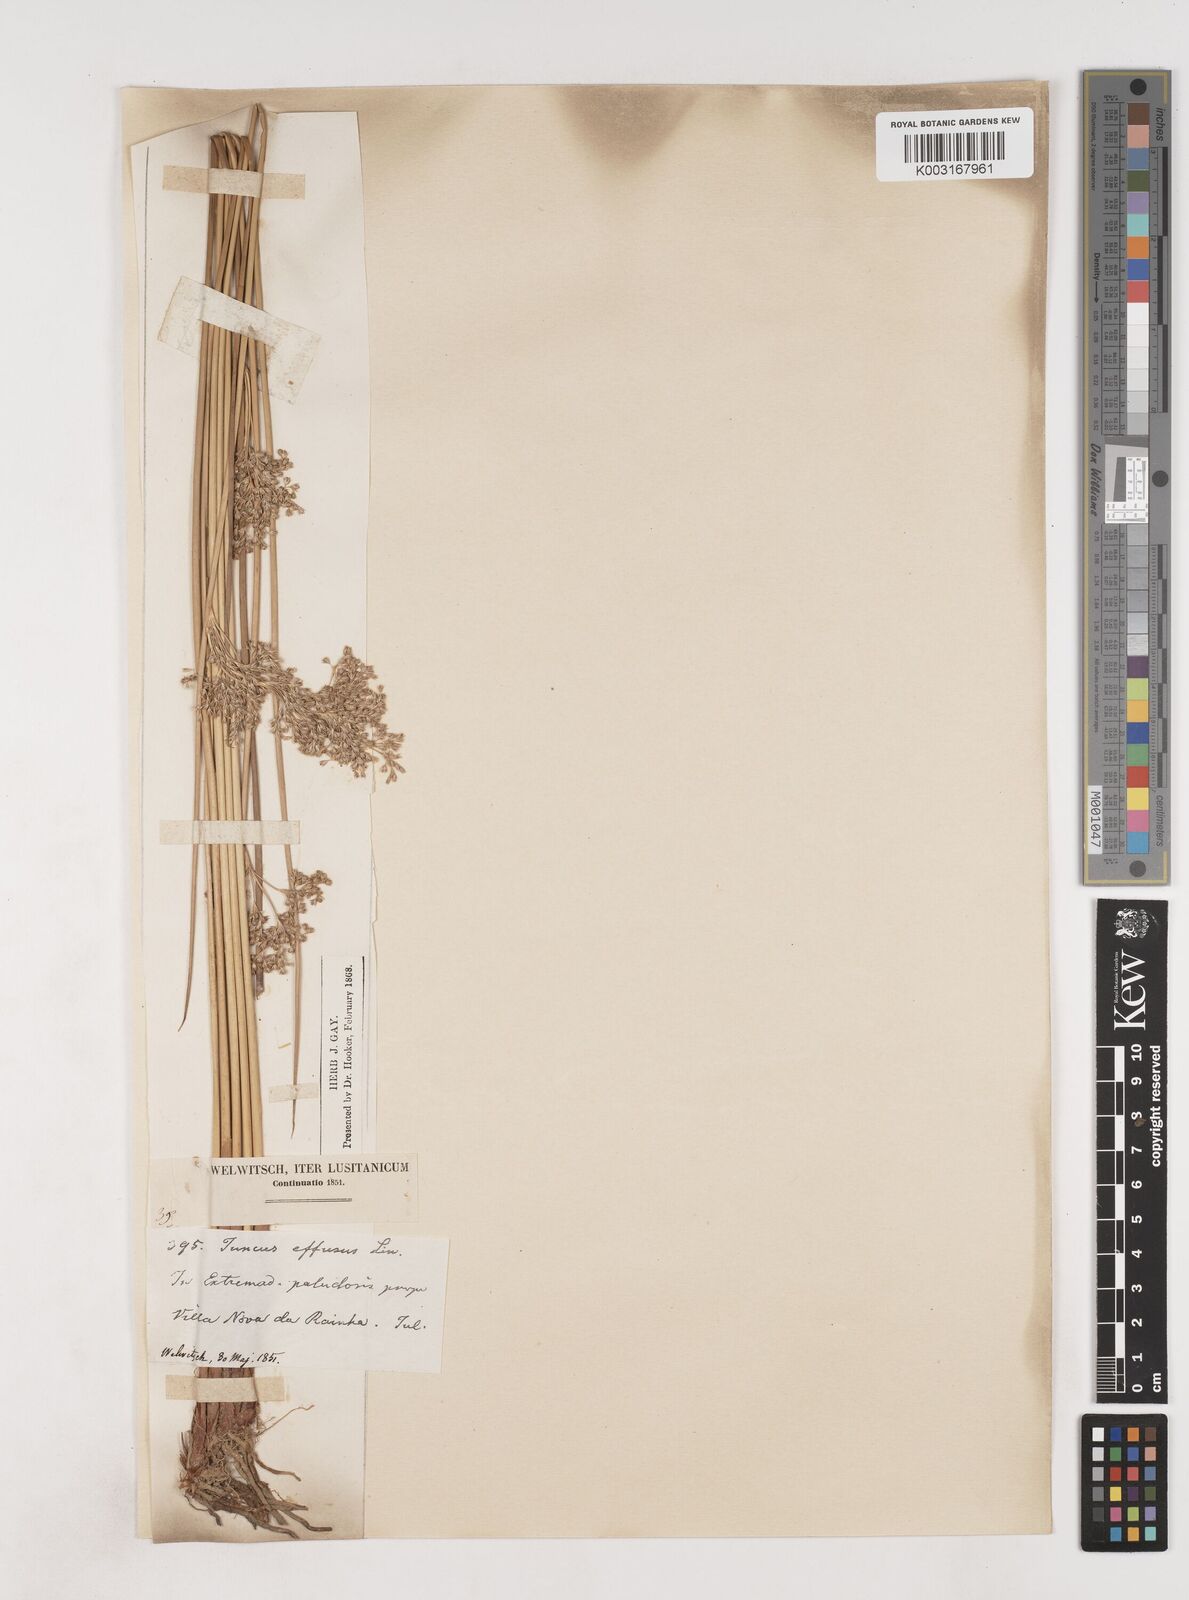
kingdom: Plantae
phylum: Tracheophyta
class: Liliopsida
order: Poales
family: Juncaceae
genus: Juncus
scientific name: Juncus effusus
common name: Soft rush
